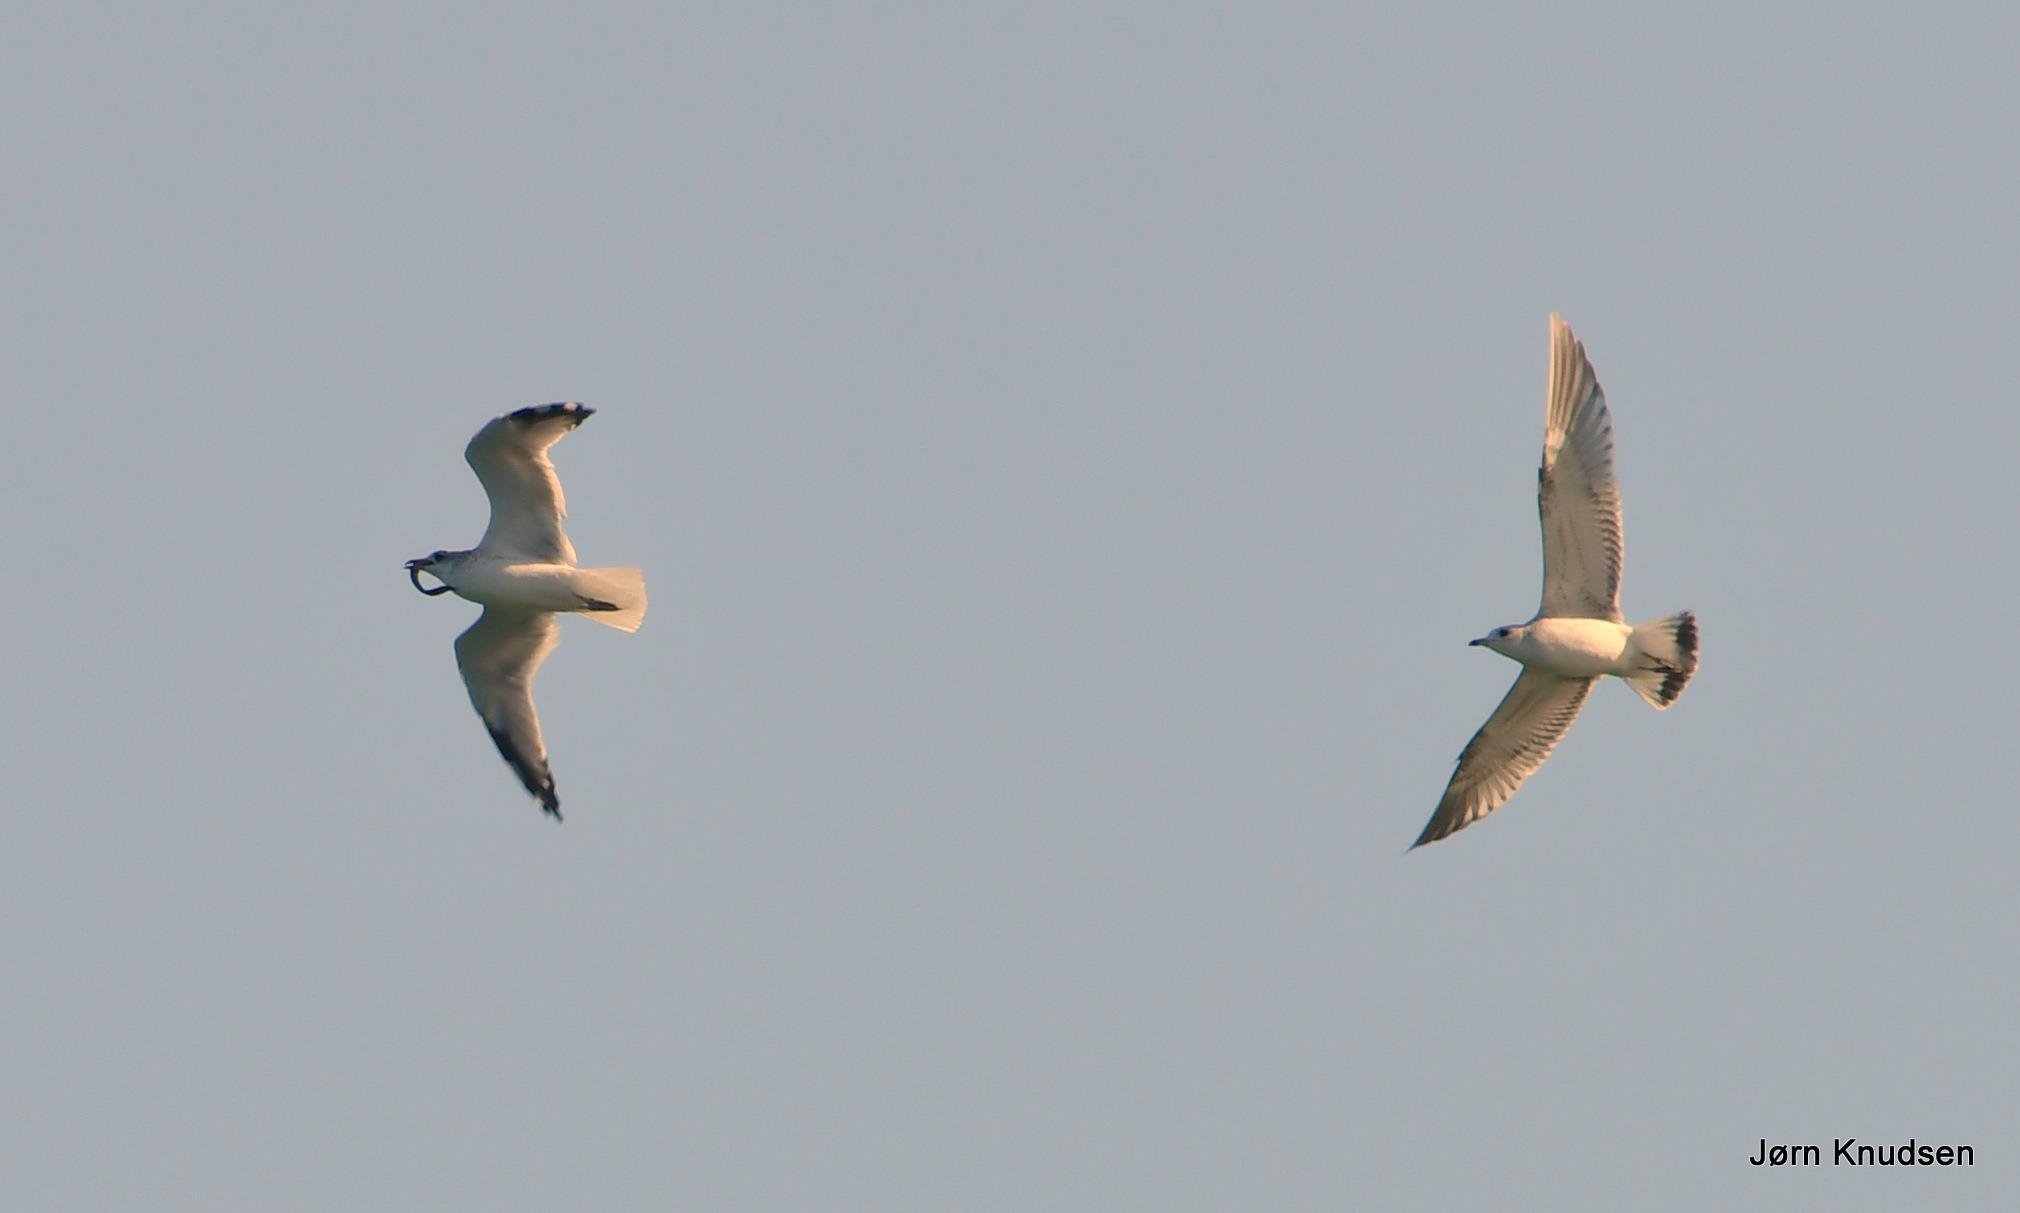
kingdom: Animalia
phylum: Chordata
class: Aves
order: Charadriiformes
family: Laridae
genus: Larus
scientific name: Larus canus
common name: Stormmåge
